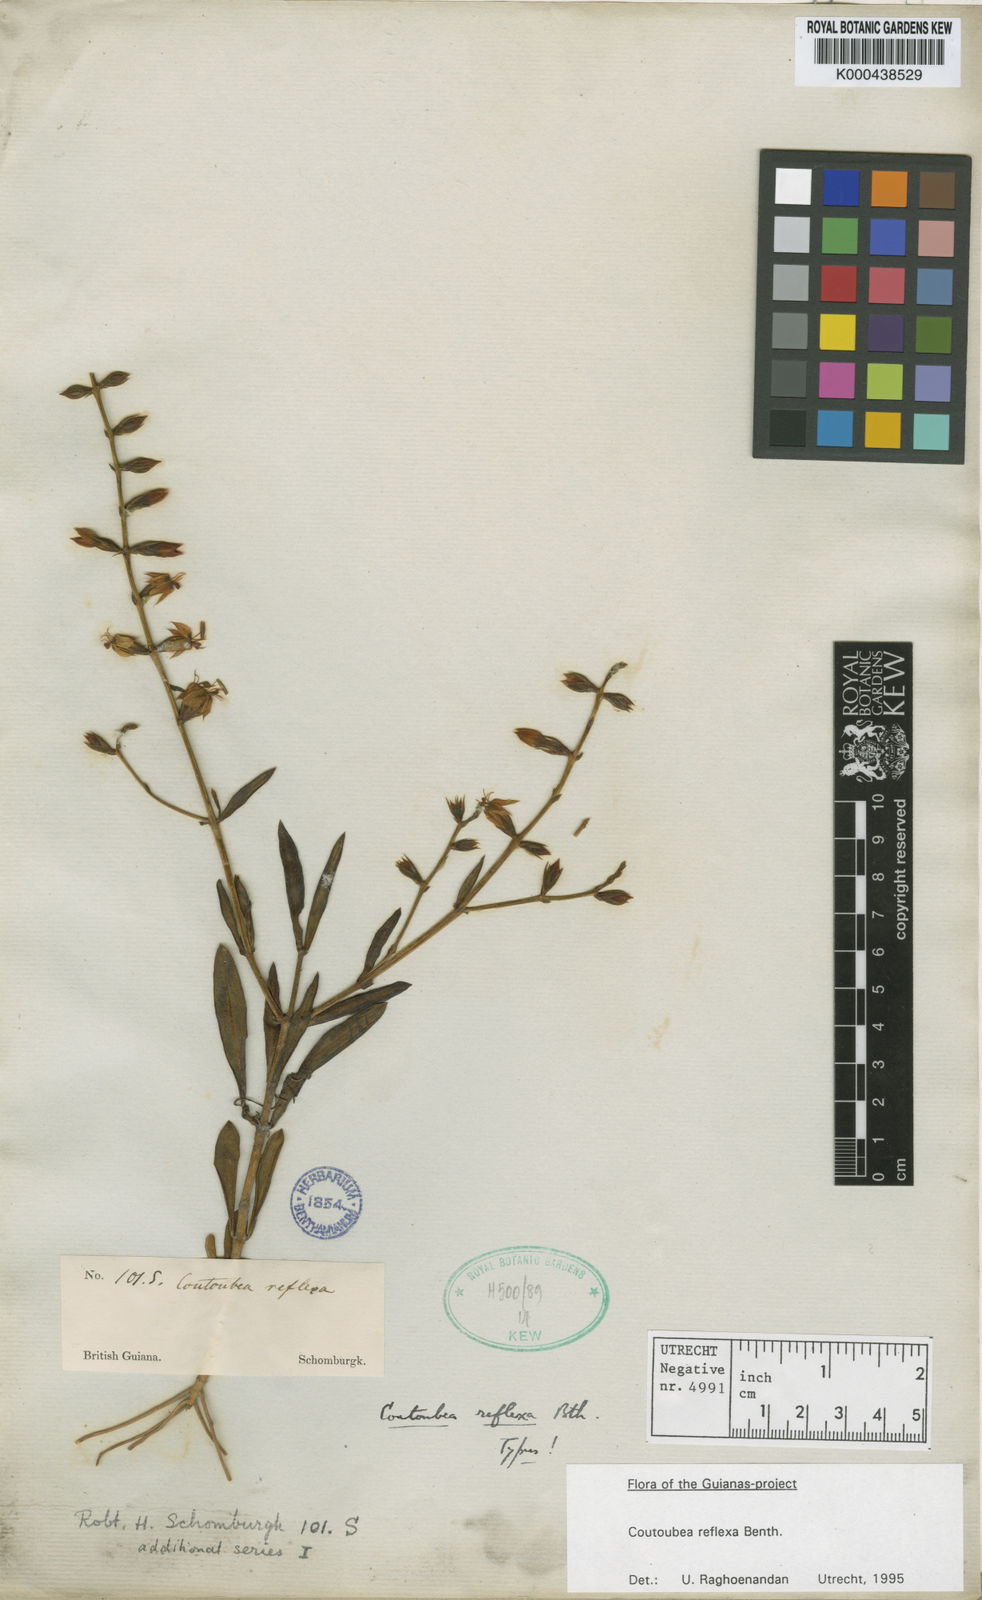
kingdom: Plantae
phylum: Tracheophyta
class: Magnoliopsida
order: Gentianales
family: Gentianaceae
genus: Coutoubea
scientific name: Coutoubea reflexa
